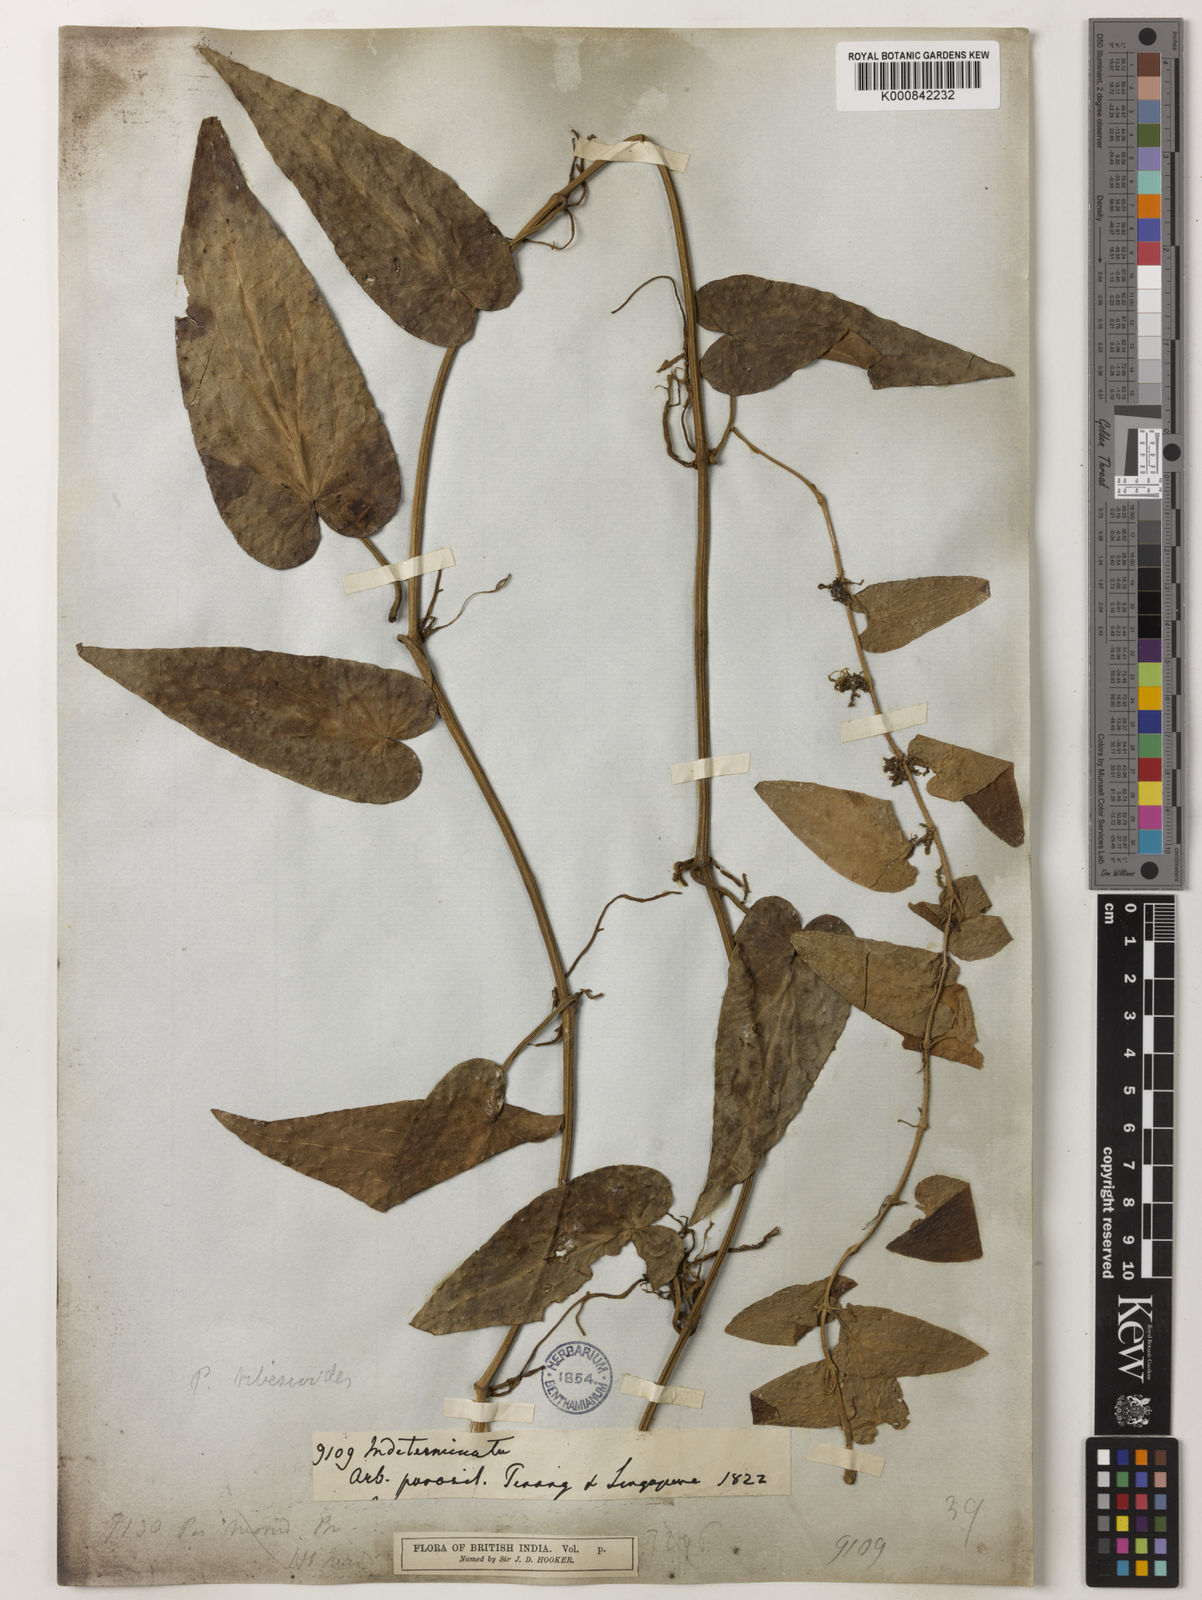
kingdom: Plantae
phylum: Tracheophyta
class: Magnoliopsida
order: Piperales
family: Piperaceae
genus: Piper
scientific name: Piper ribesioides
